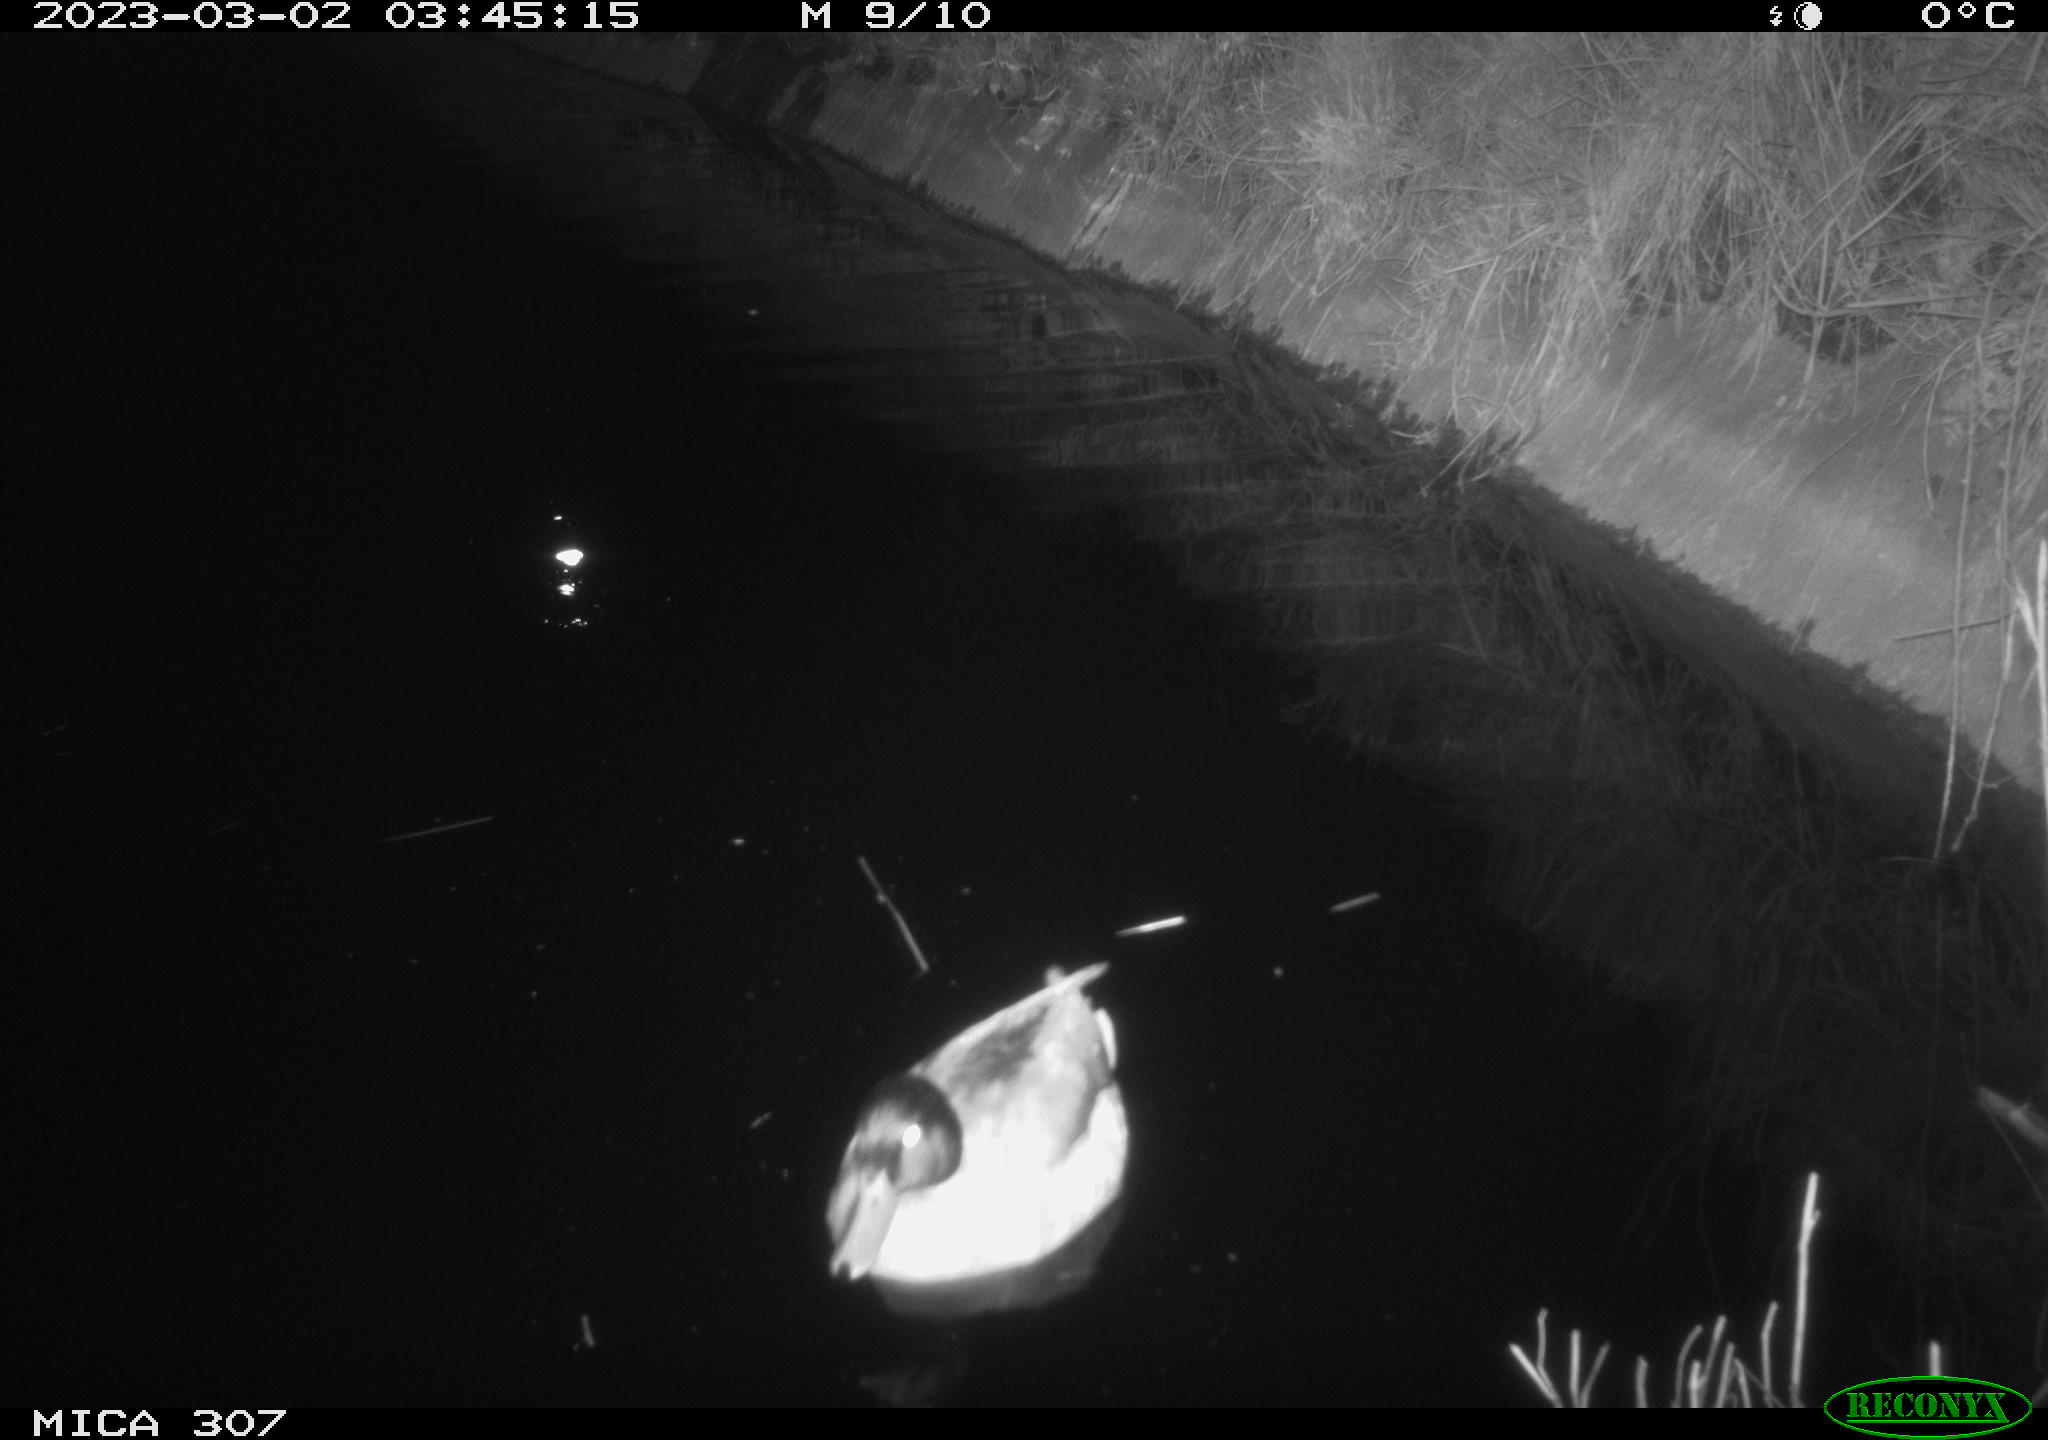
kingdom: Animalia
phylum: Chordata
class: Aves
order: Anseriformes
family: Anatidae
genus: Anas
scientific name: Anas
